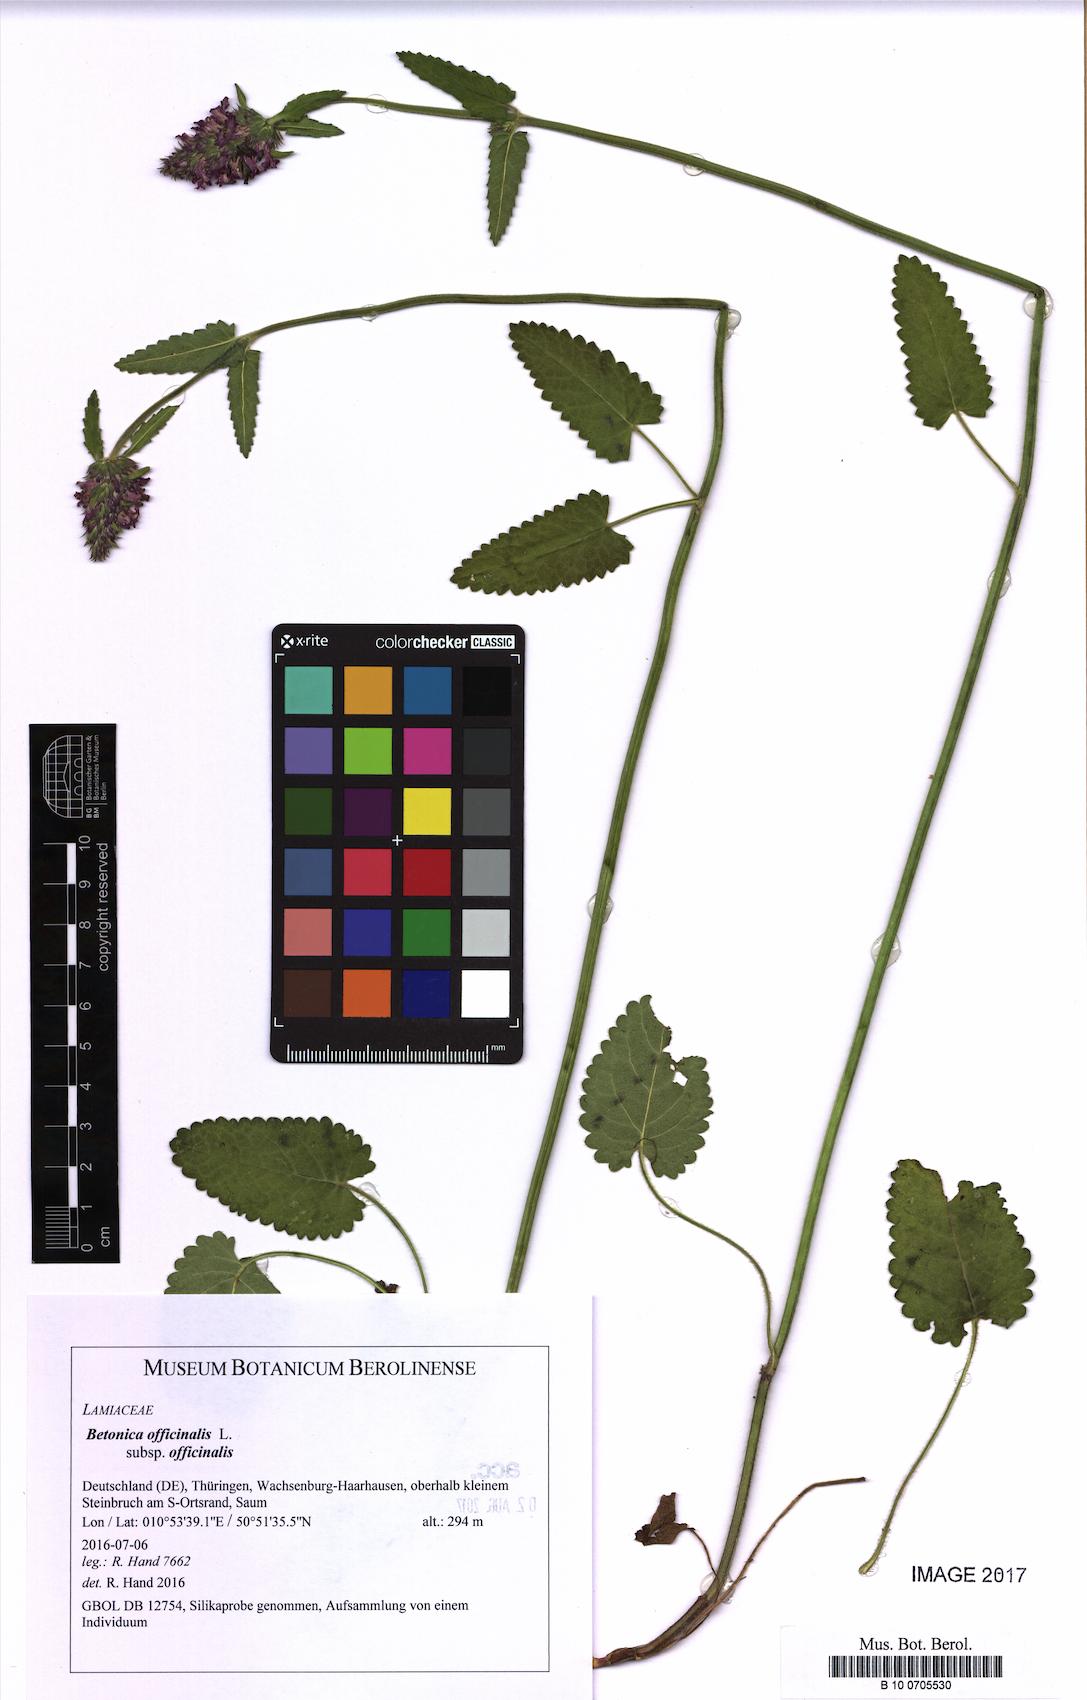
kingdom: Plantae
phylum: Tracheophyta
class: Magnoliopsida
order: Lamiales
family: Lamiaceae
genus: Betonica
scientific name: Betonica officinalis
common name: Bishop's-wort
